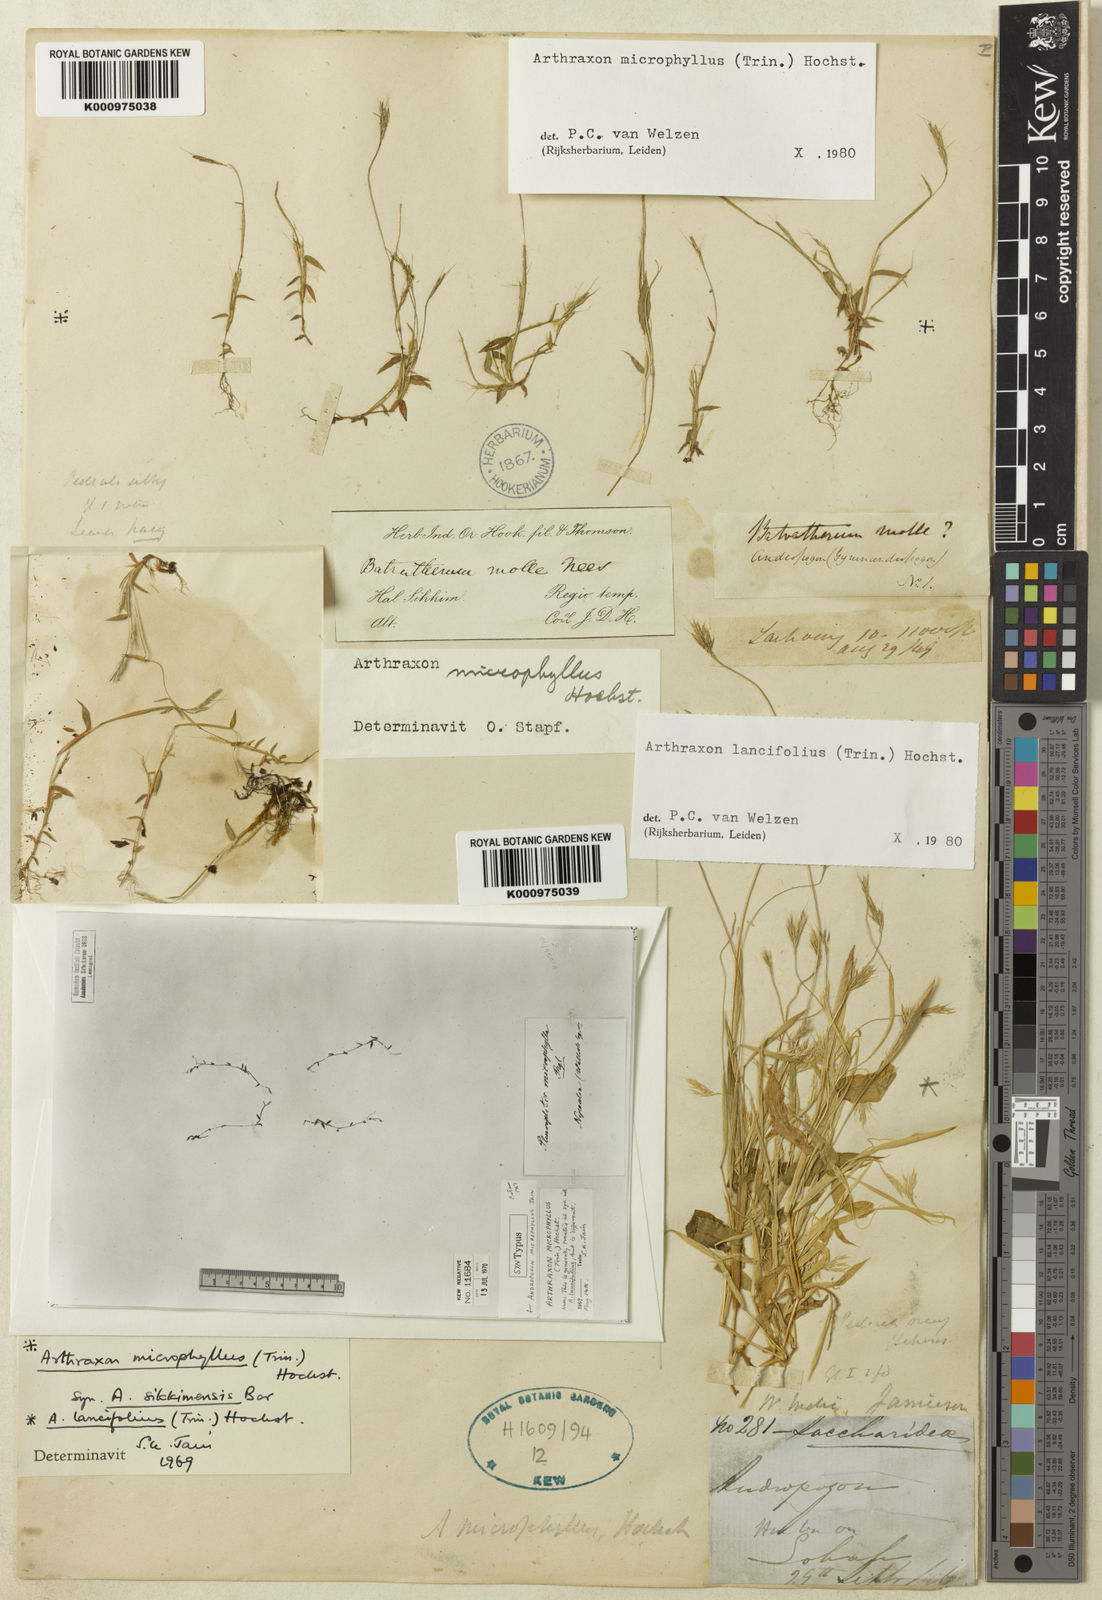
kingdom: Plantae
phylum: Tracheophyta
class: Liliopsida
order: Poales
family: Poaceae
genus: Arthraxon
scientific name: Arthraxon microphyllus
